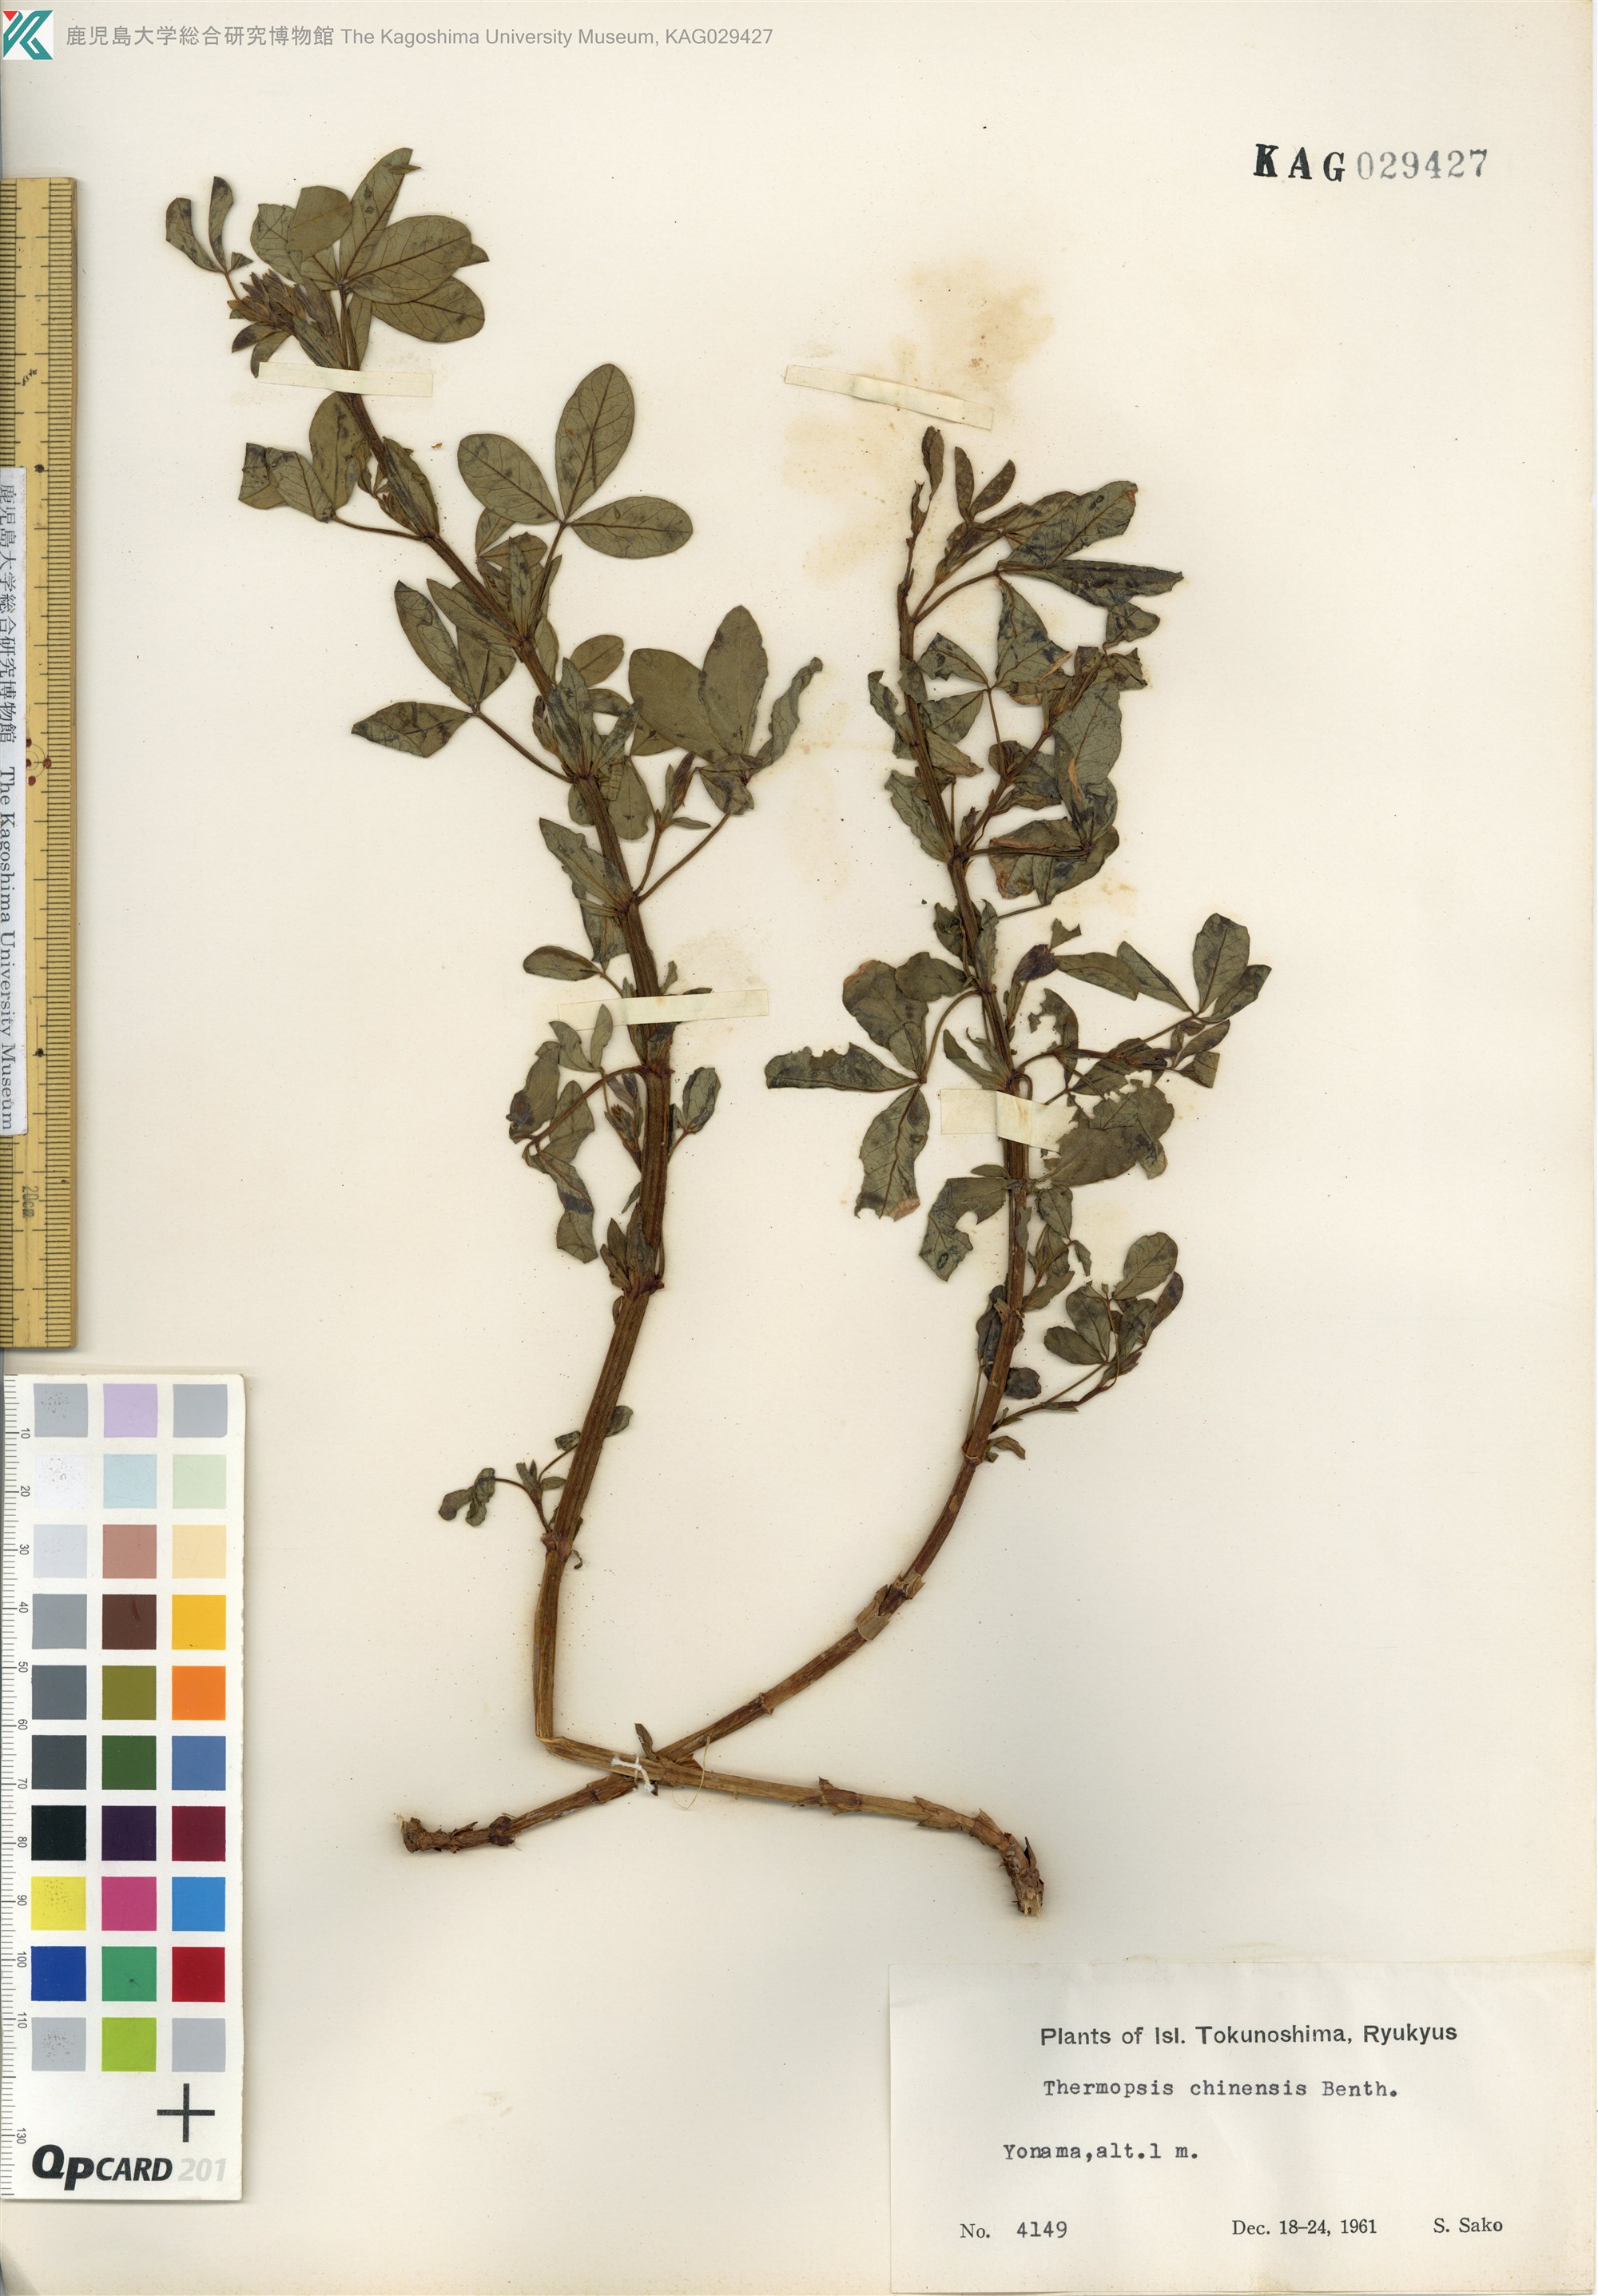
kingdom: Plantae
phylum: Tracheophyta
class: Magnoliopsida
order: Fabales
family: Fabaceae
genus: Thermopsis
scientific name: Thermopsis chinensis
